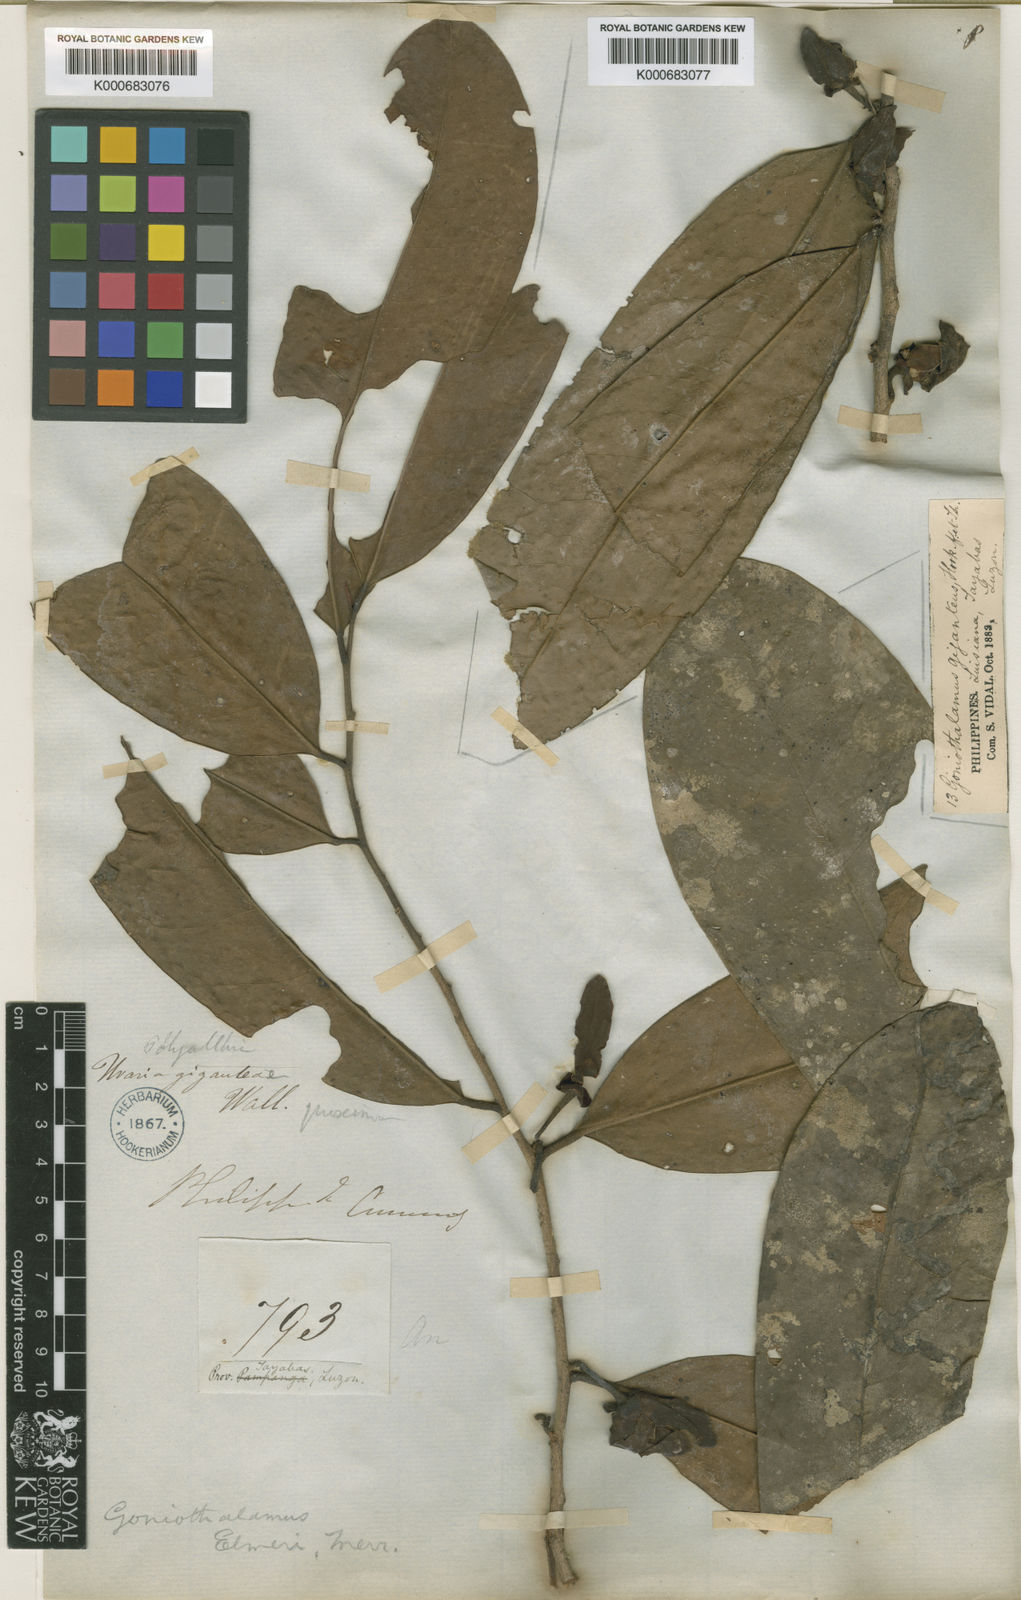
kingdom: Plantae
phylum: Tracheophyta
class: Magnoliopsida
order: Magnoliales
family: Annonaceae
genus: Goniothalamus
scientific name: Goniothalamus elmeri
